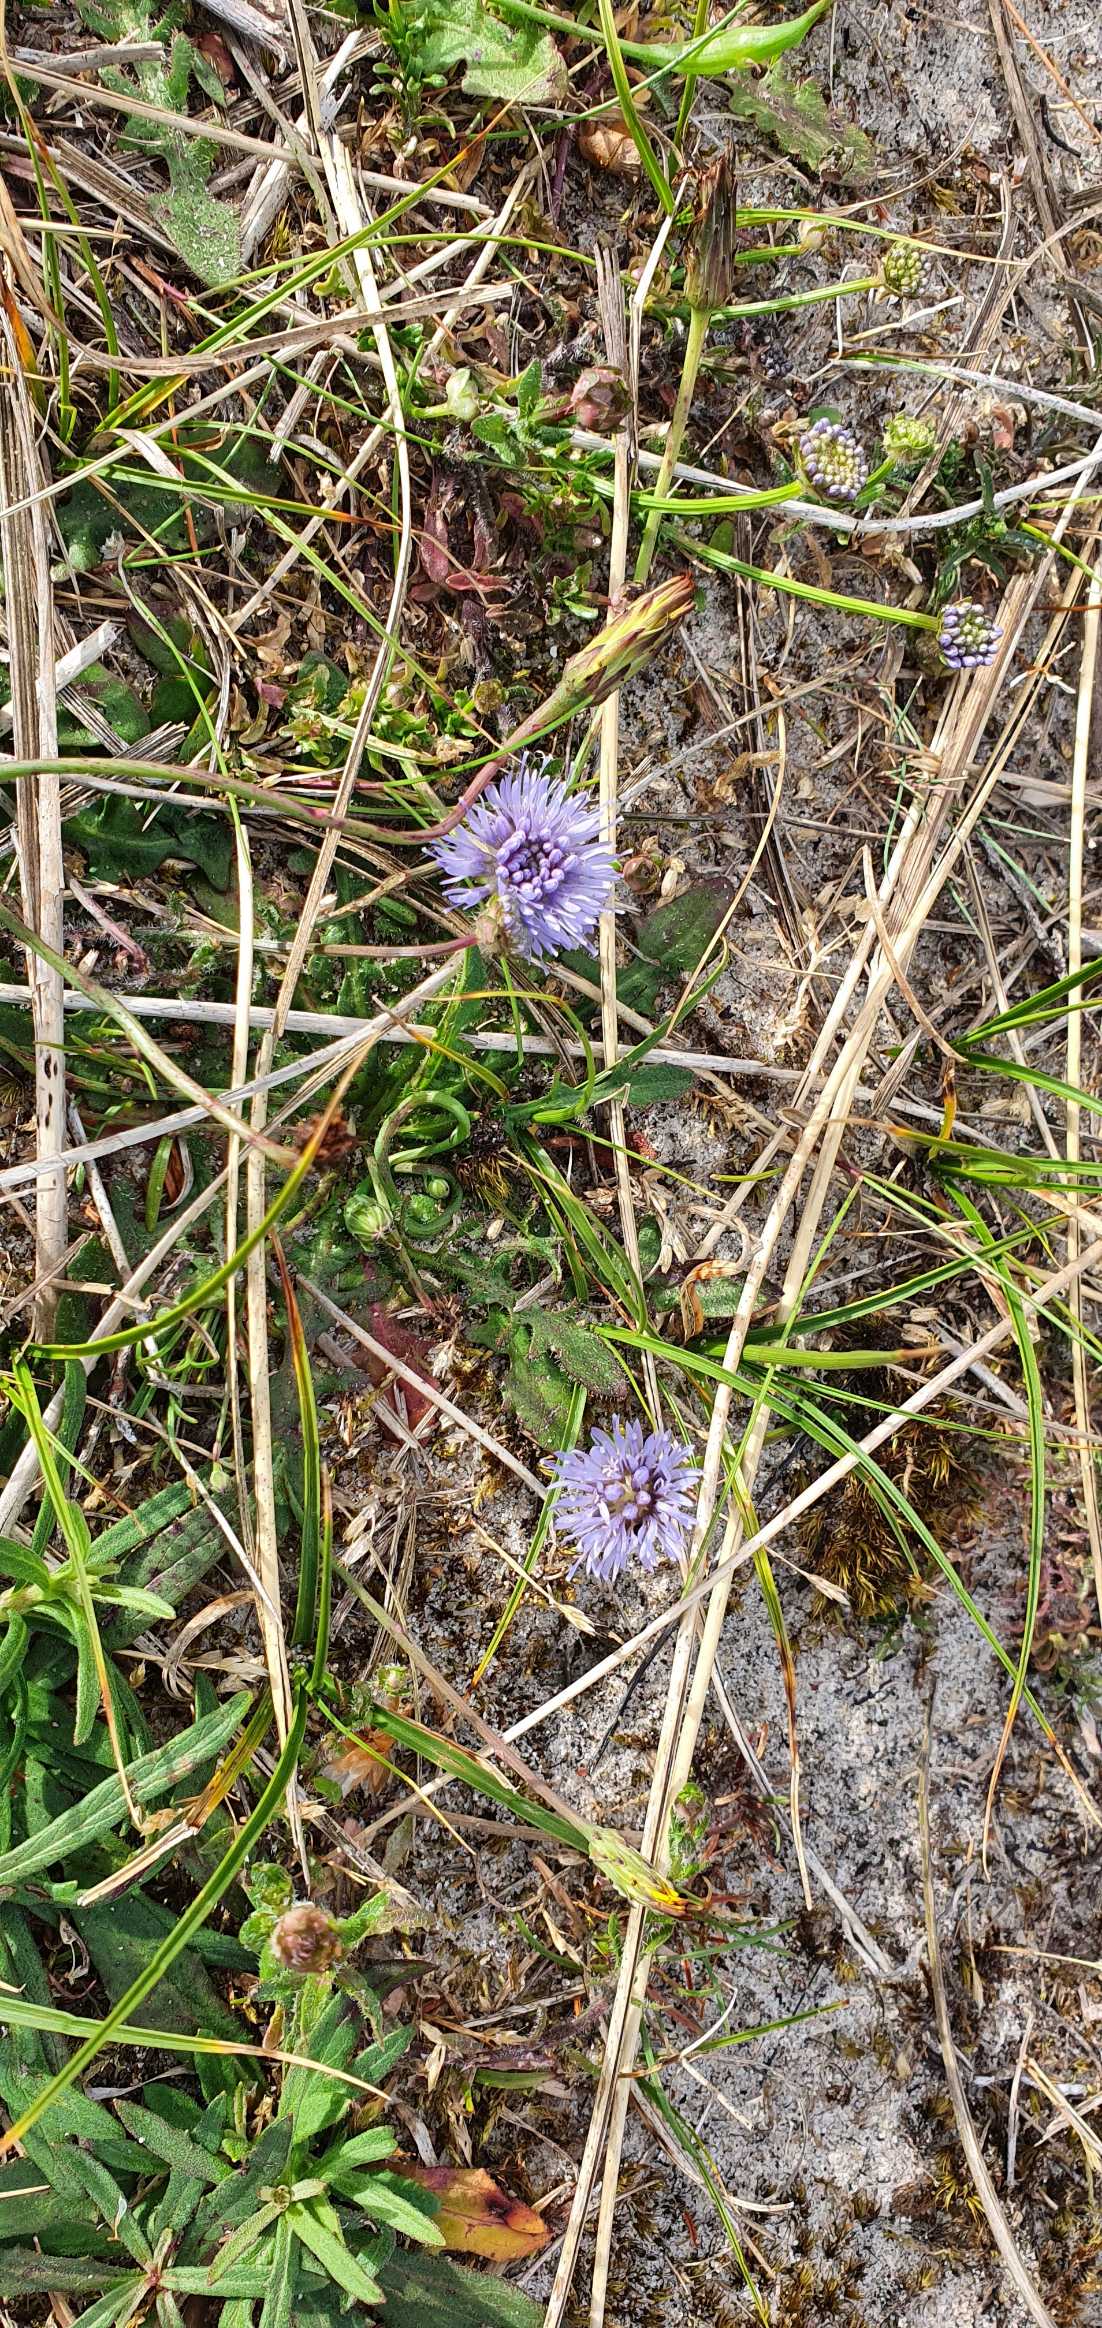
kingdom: Plantae
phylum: Tracheophyta
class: Magnoliopsida
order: Asterales
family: Campanulaceae
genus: Jasione
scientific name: Jasione montana
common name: Blåmunke
